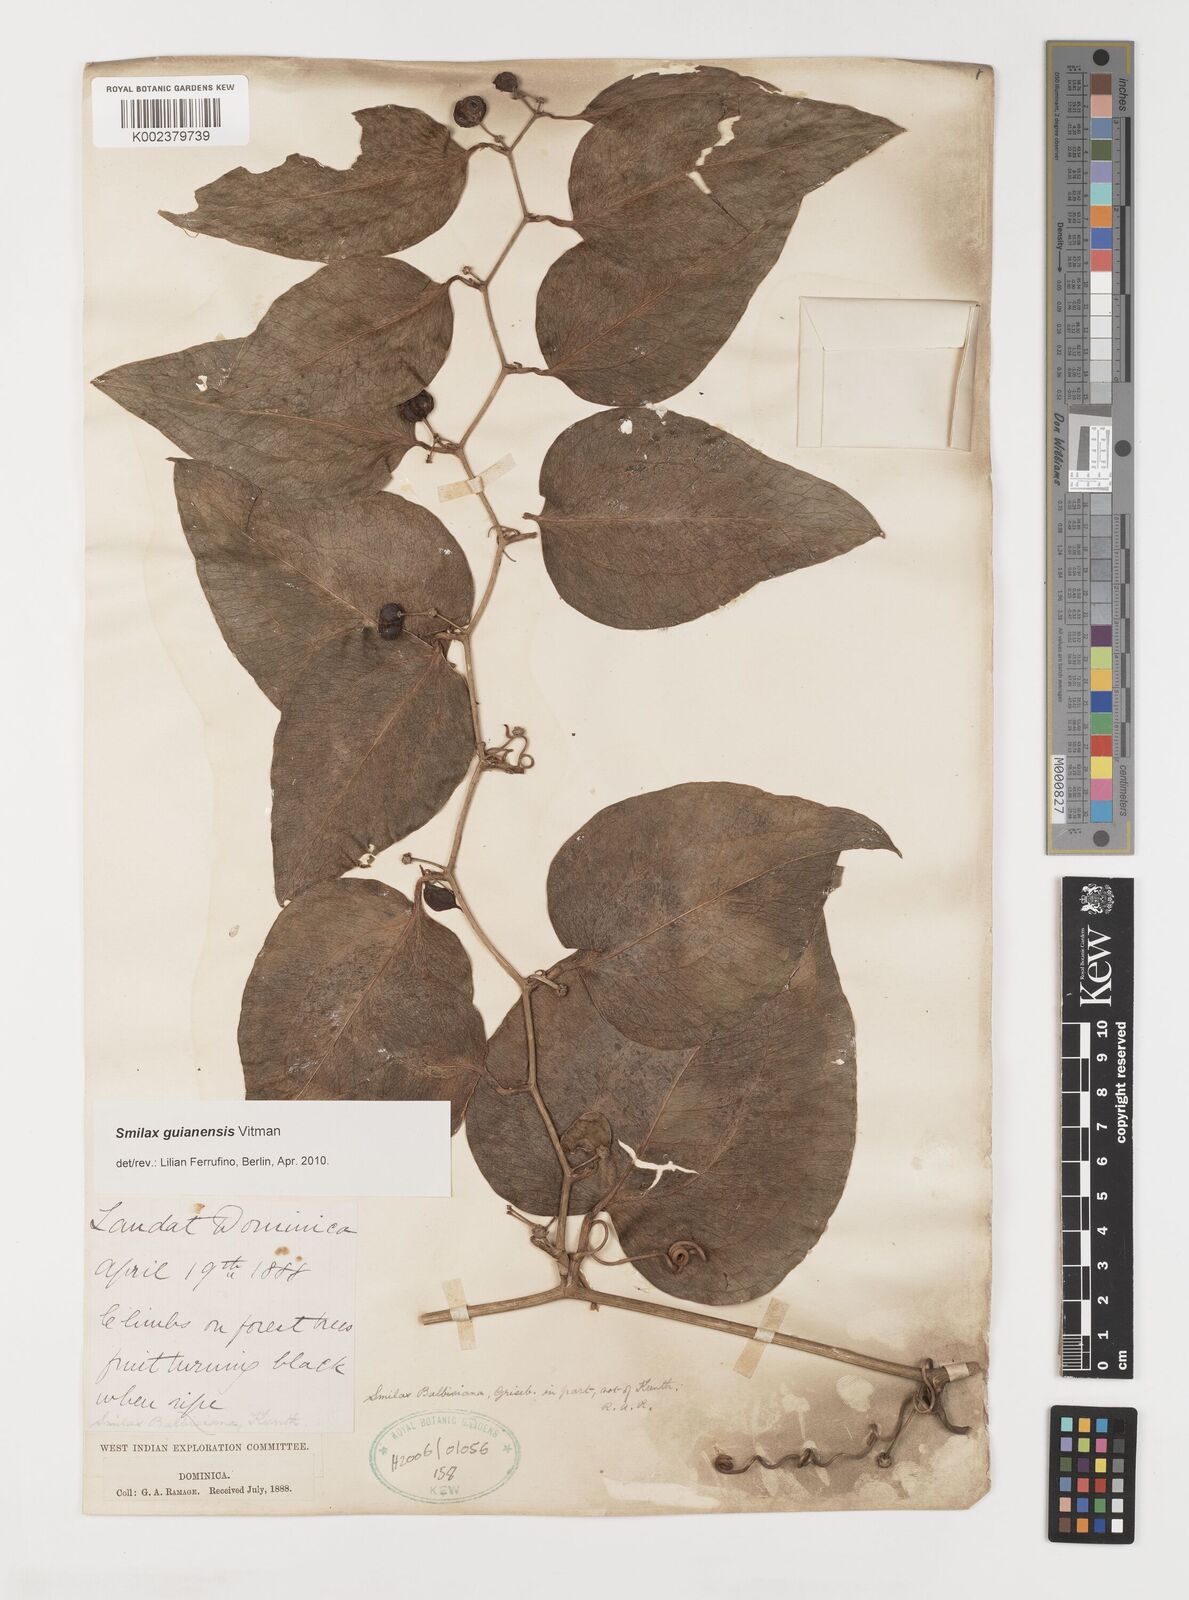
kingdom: Plantae
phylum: Tracheophyta
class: Liliopsida
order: Liliales
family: Smilacaceae
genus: Smilax
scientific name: Smilax guianensis
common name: Basket hoop
